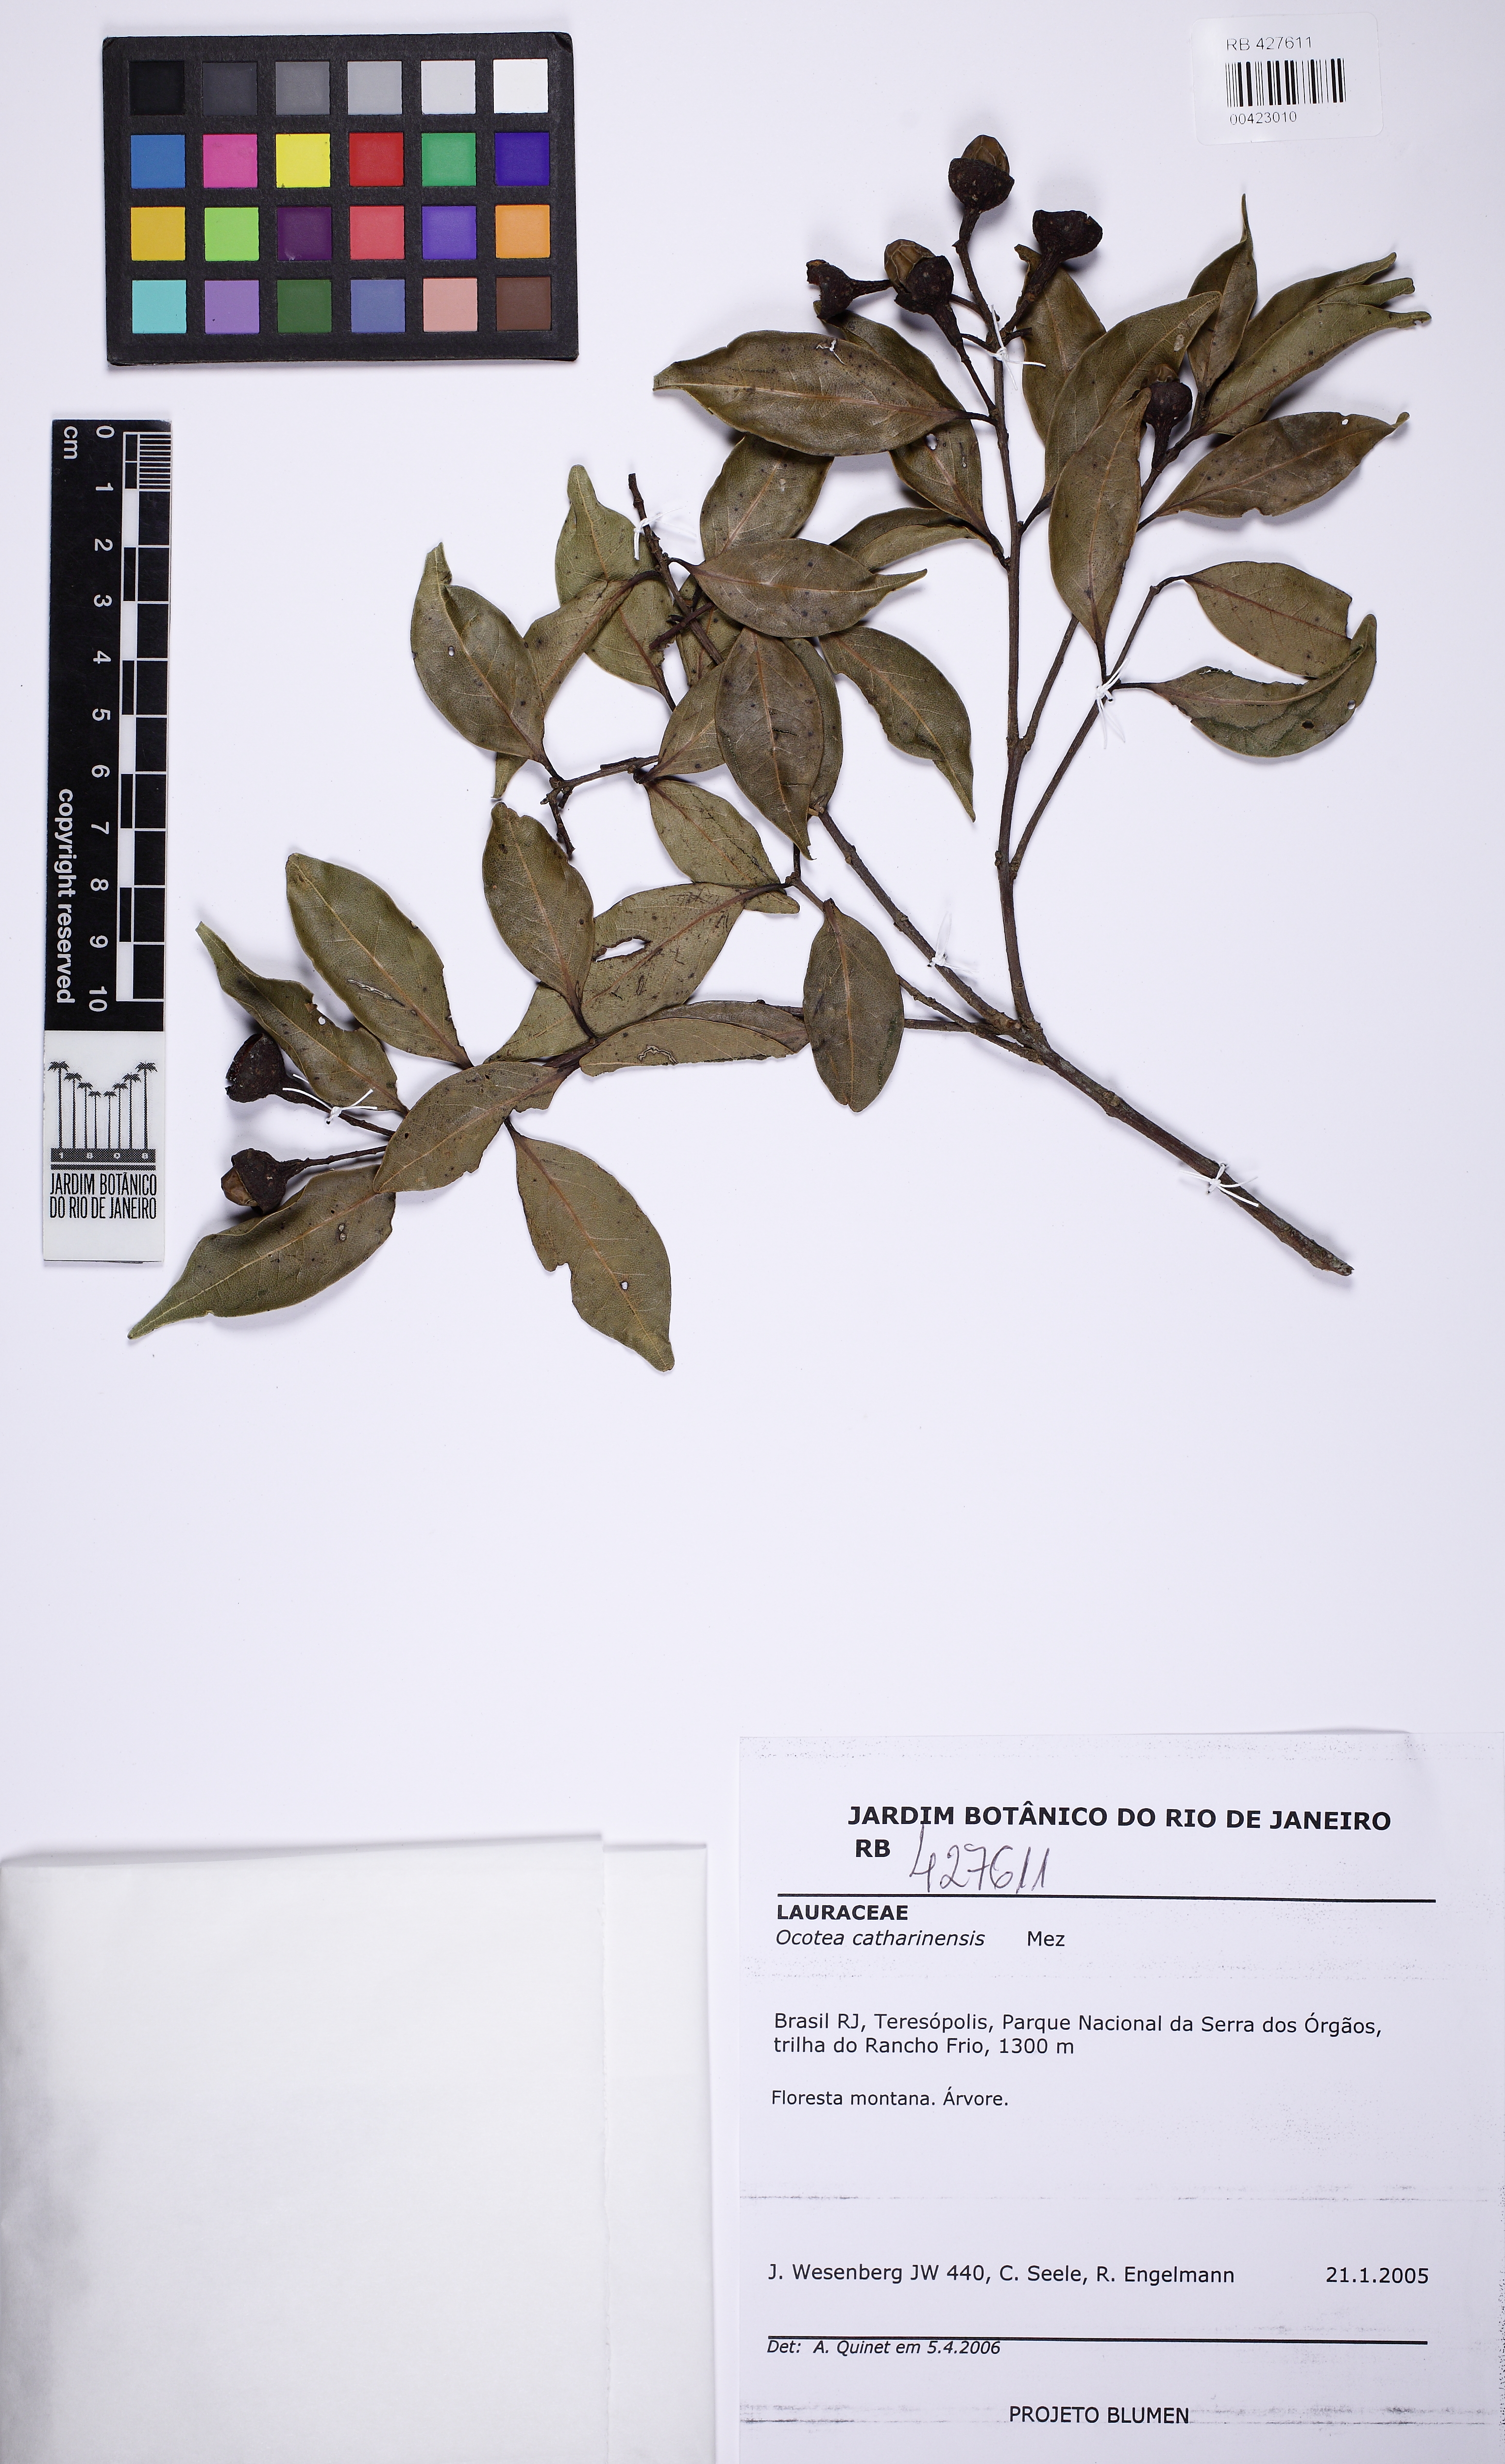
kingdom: Plantae
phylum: Tracheophyta
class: Magnoliopsida
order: Laurales
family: Lauraceae
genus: Ocotea
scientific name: Ocotea catharinensis
